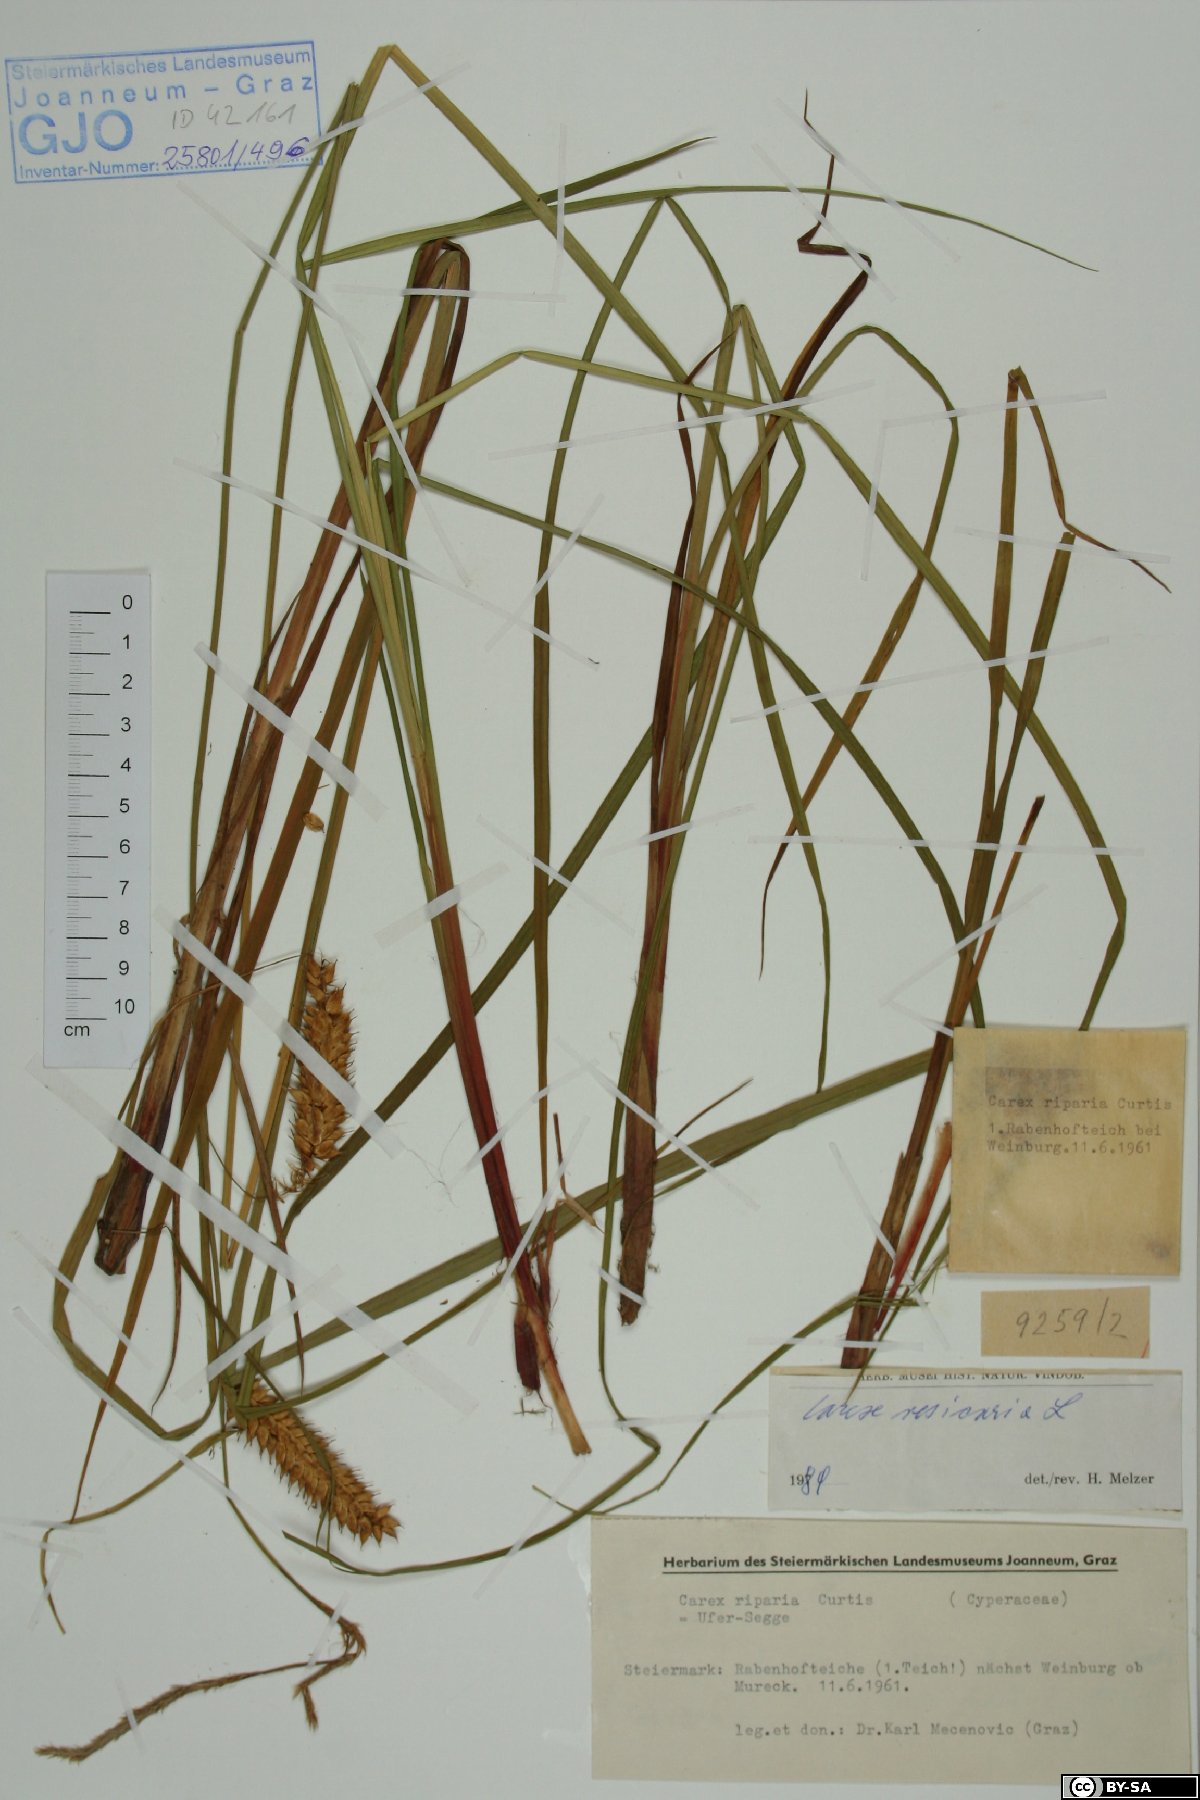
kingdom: Plantae
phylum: Tracheophyta
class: Liliopsida
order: Poales
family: Cyperaceae
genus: Carex
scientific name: Carex vesicaria
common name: Bladder-sedge
